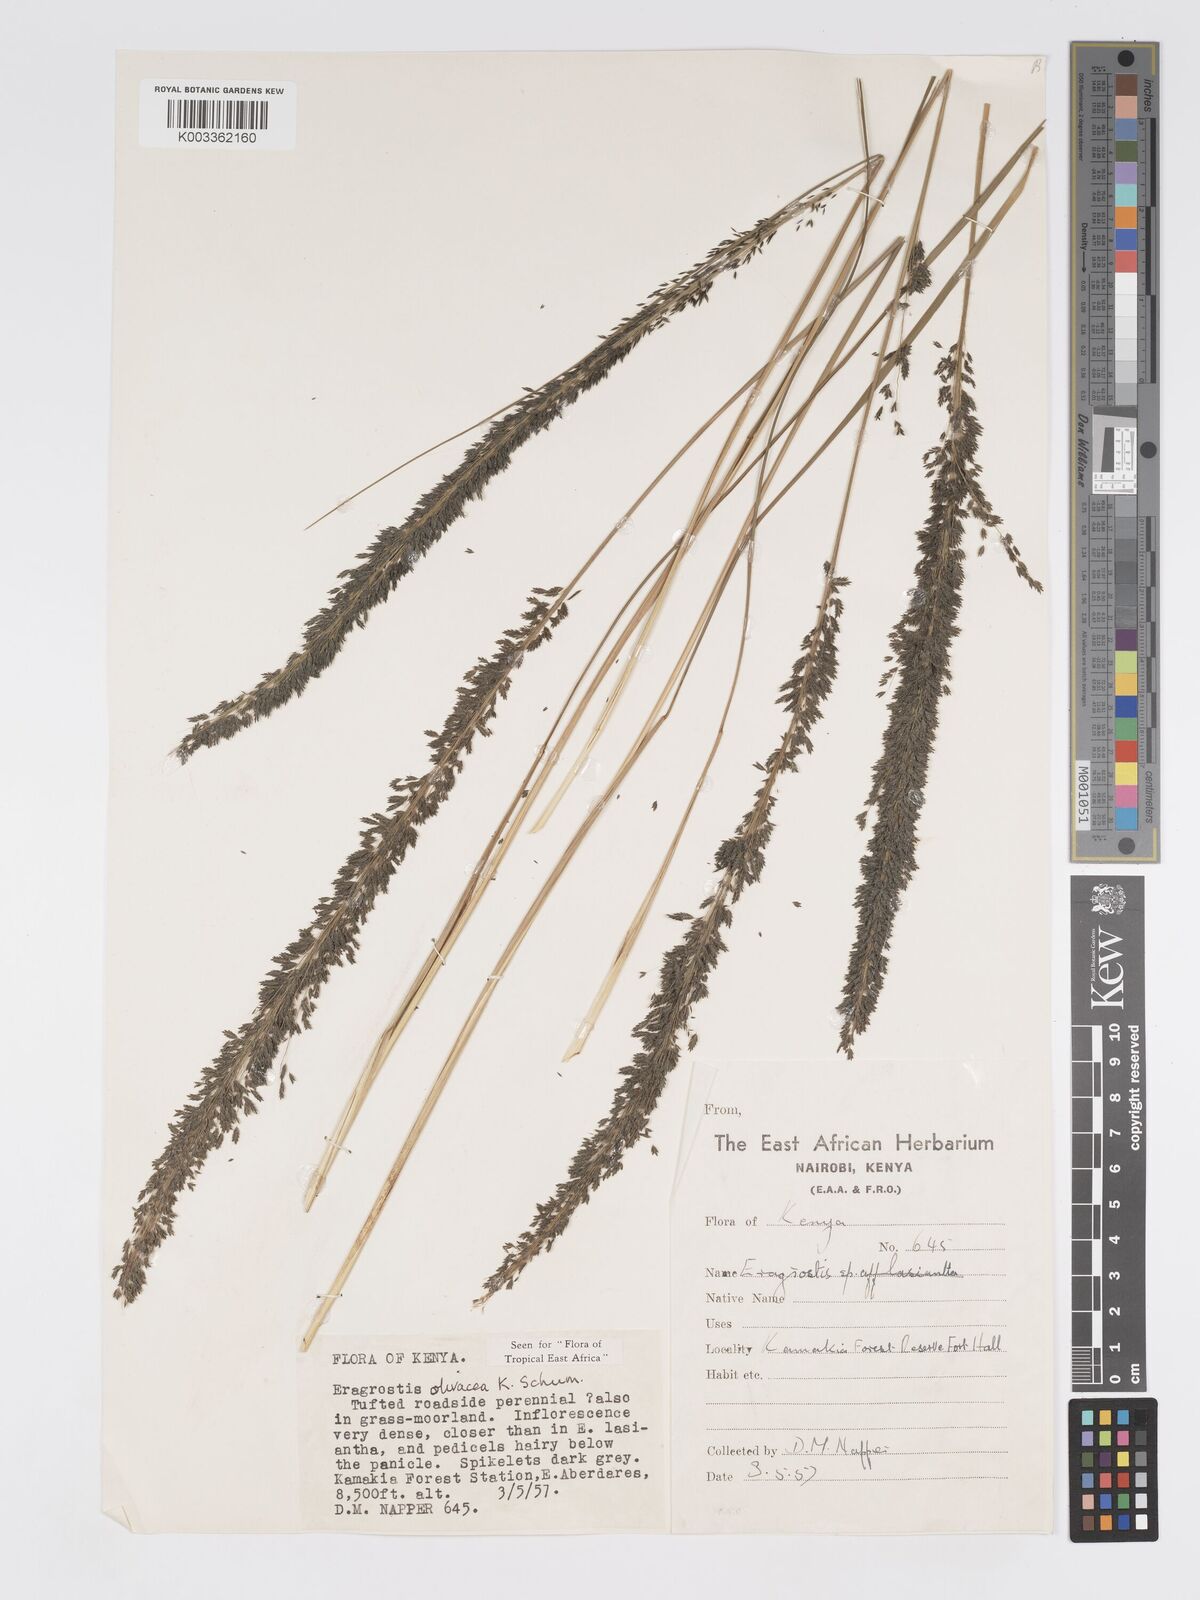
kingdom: Plantae
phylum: Tracheophyta
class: Liliopsida
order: Poales
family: Poaceae
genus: Eragrostis
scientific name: Eragrostis olivacea
